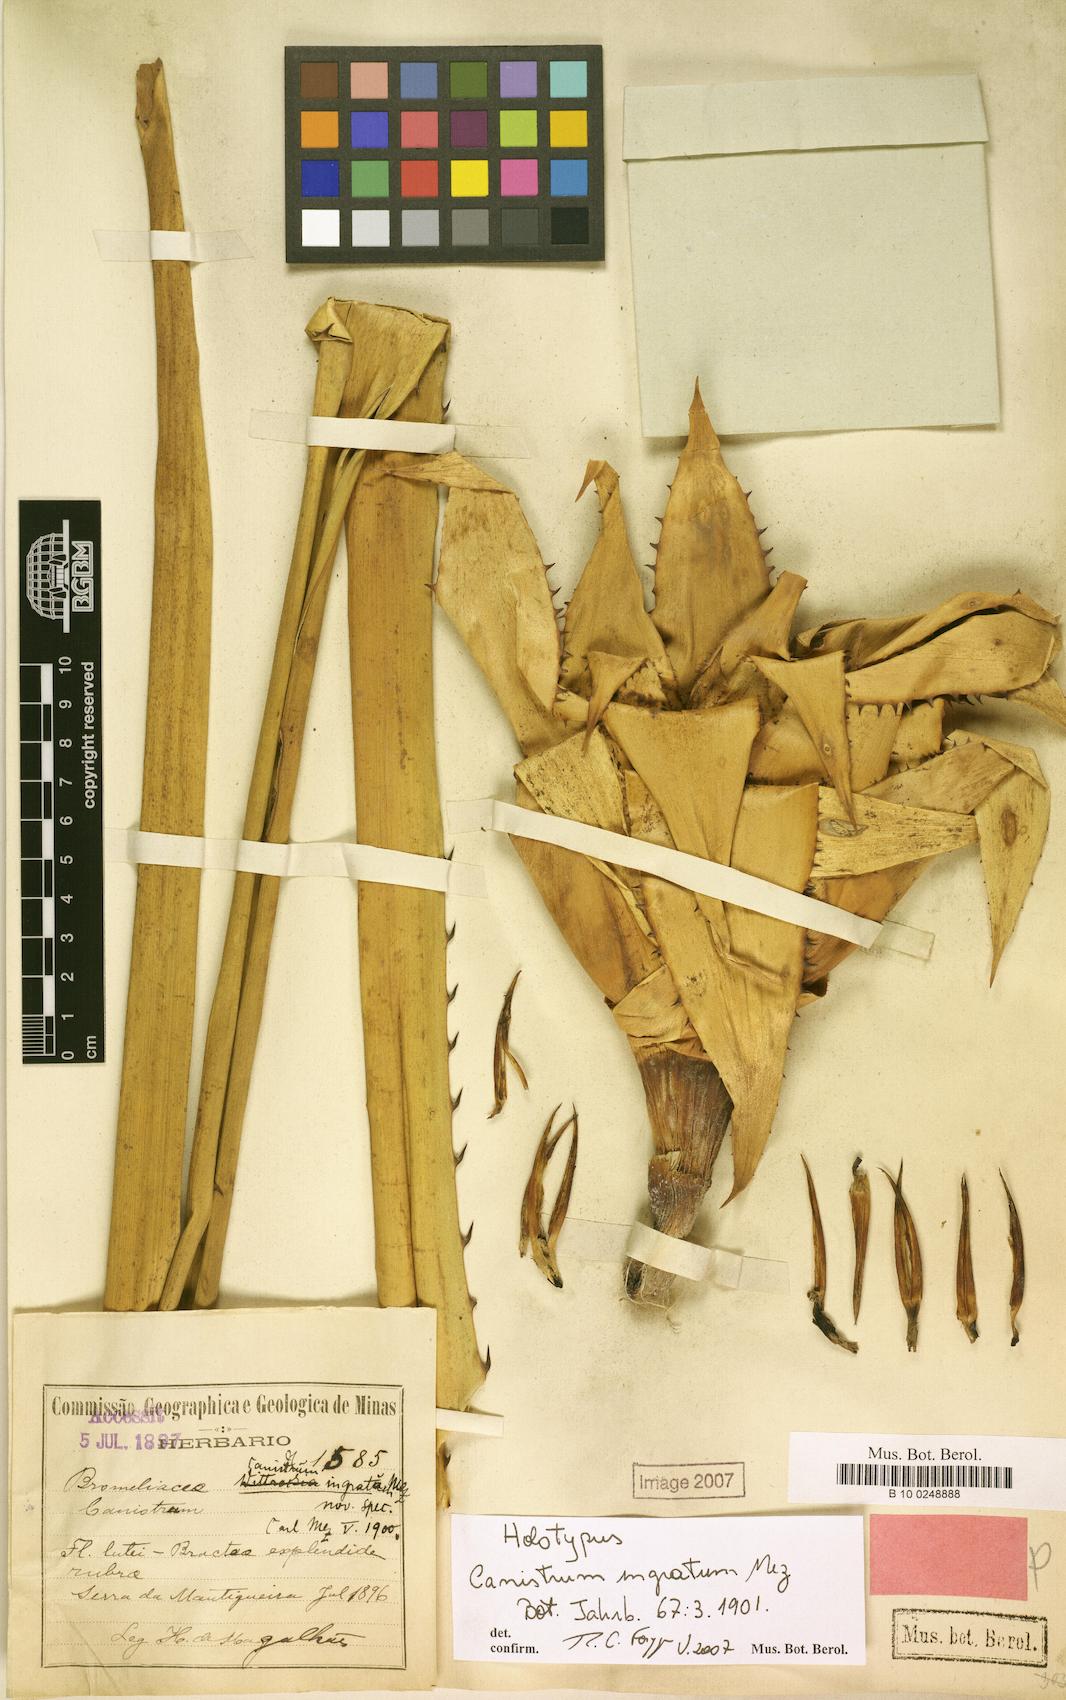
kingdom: Plantae
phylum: Tracheophyta
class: Liliopsida
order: Poales
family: Bromeliaceae
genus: Wittrockia
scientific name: Wittrockia gigantea
